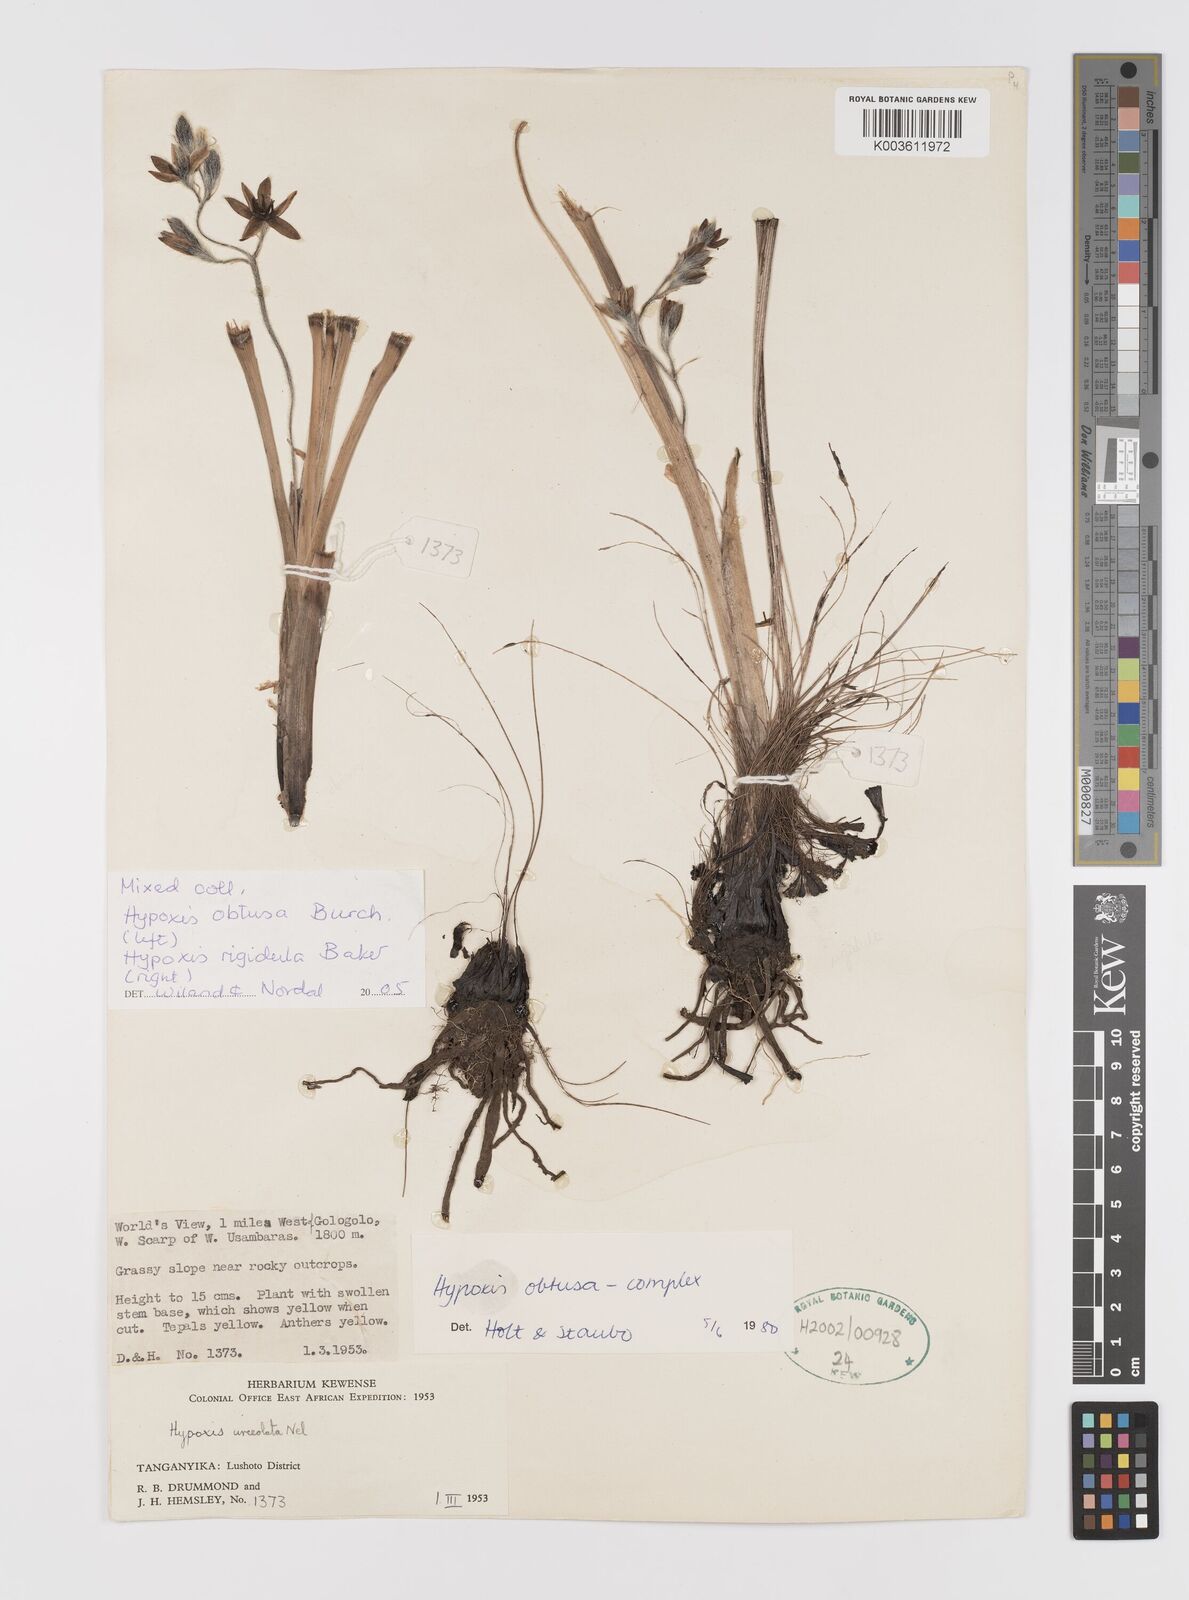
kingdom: Plantae
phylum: Tracheophyta
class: Liliopsida
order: Asparagales
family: Hypoxidaceae
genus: Hypoxis
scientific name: Hypoxis obtusa
